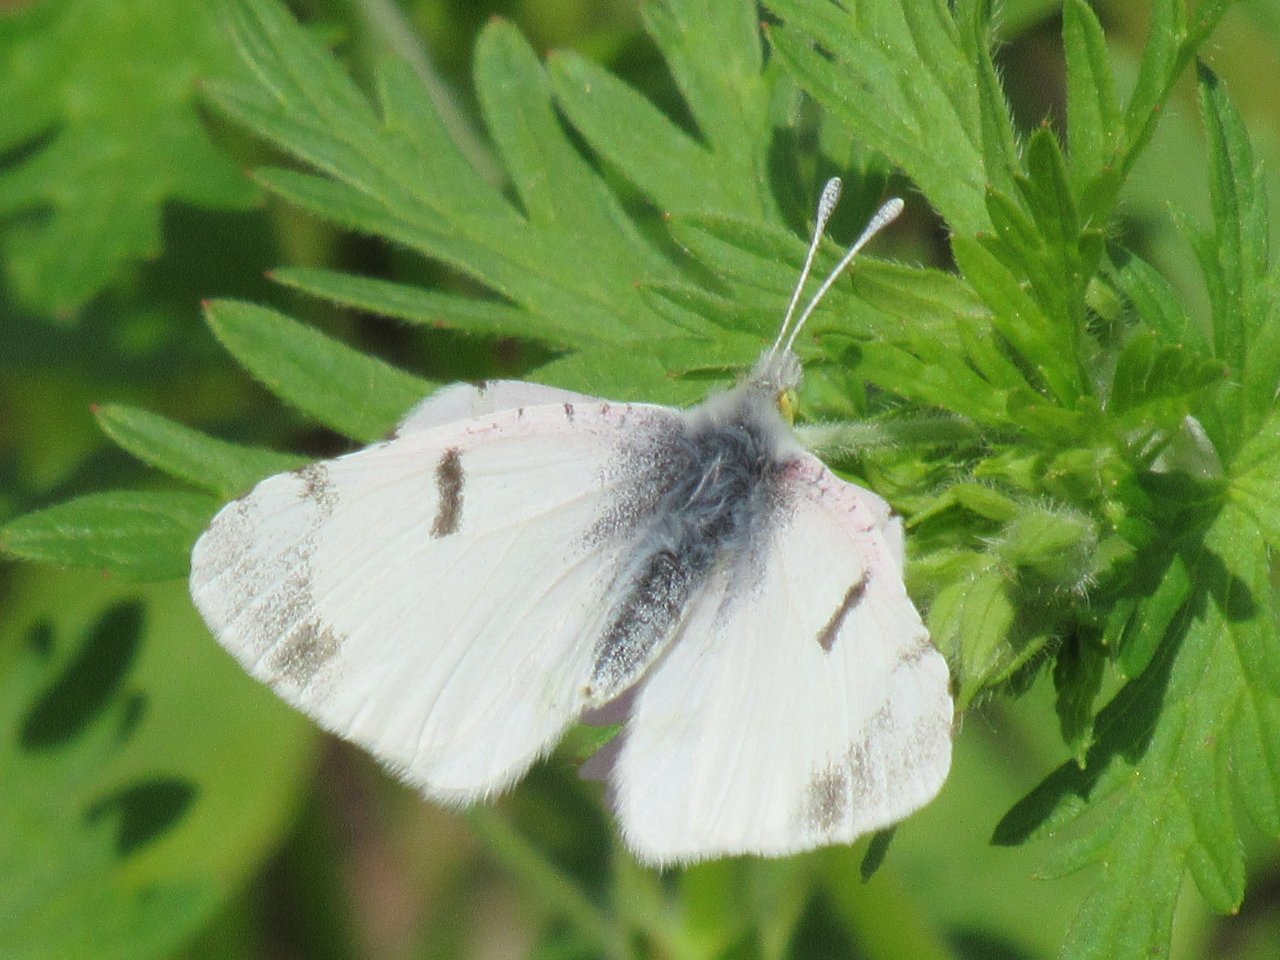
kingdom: Animalia
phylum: Arthropoda
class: Insecta
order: Lepidoptera
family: Pieridae
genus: Euchloe
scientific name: Euchloe olympia
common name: Olympia Marble
